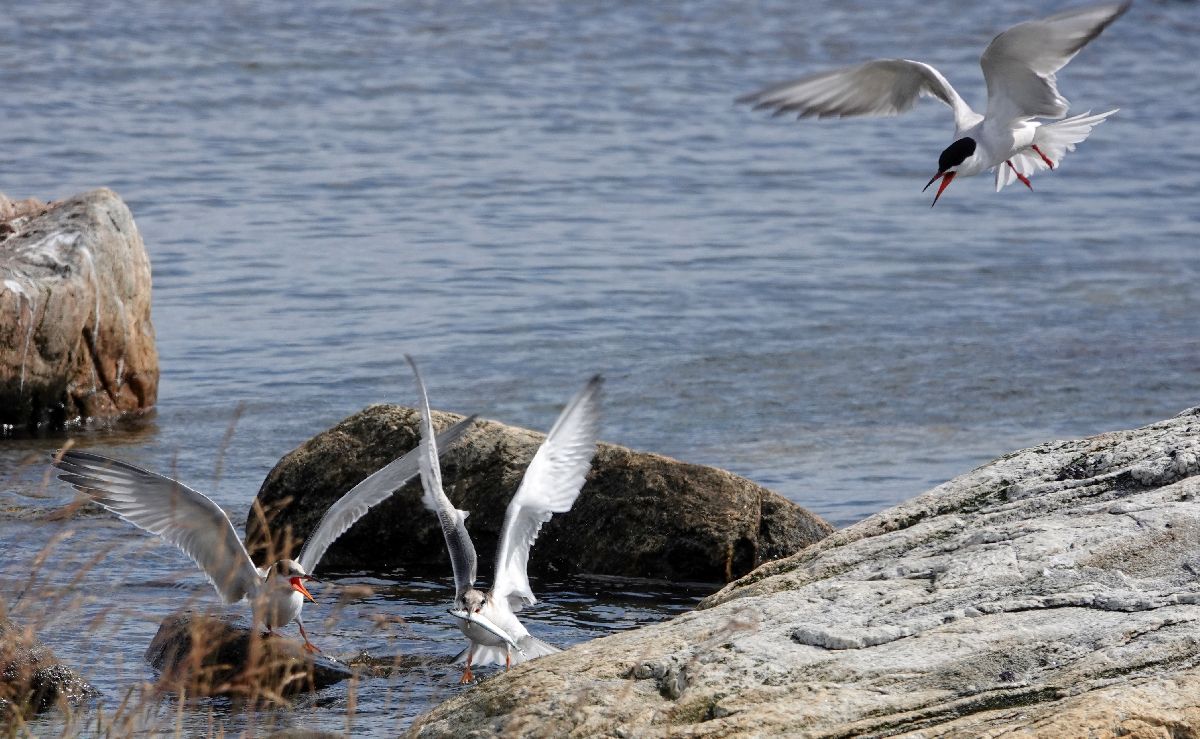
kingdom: Animalia
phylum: Chordata
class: Aves
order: Charadriiformes
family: Laridae
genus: Sterna
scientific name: Sterna hirundo
